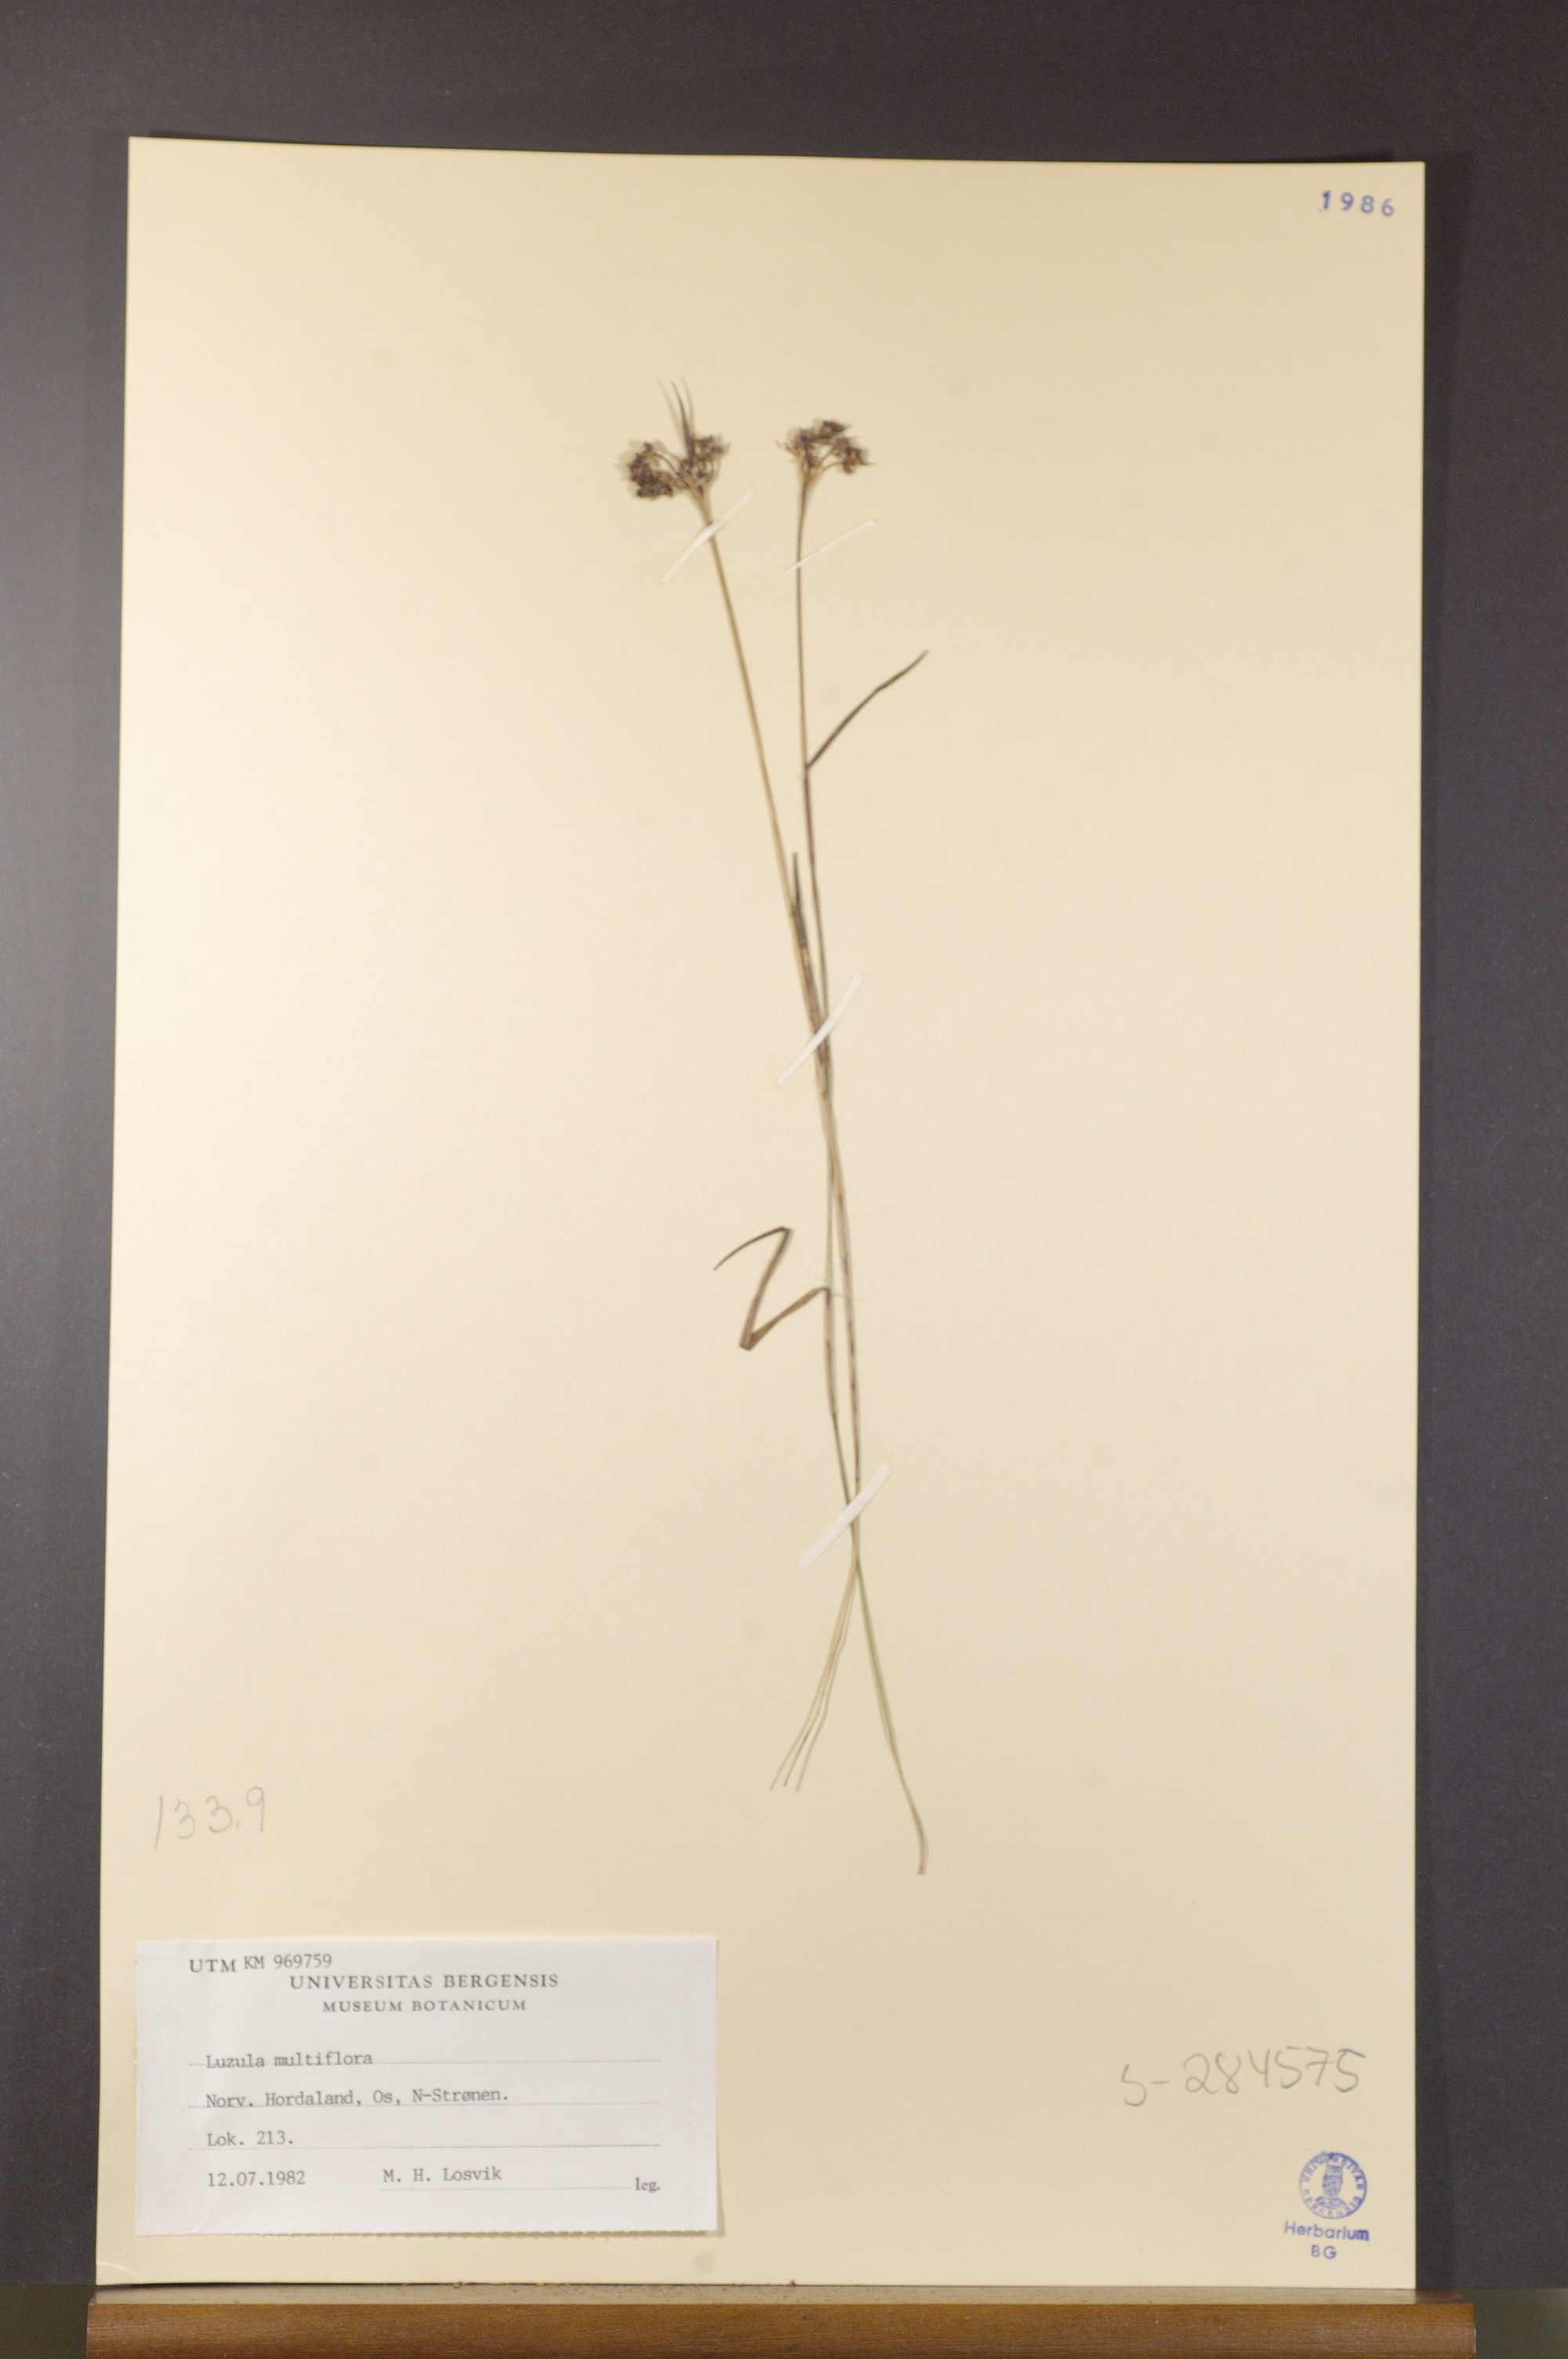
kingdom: Plantae
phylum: Tracheophyta
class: Liliopsida
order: Poales
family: Juncaceae
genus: Luzula
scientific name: Luzula multiflora
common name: Heath wood-rush
